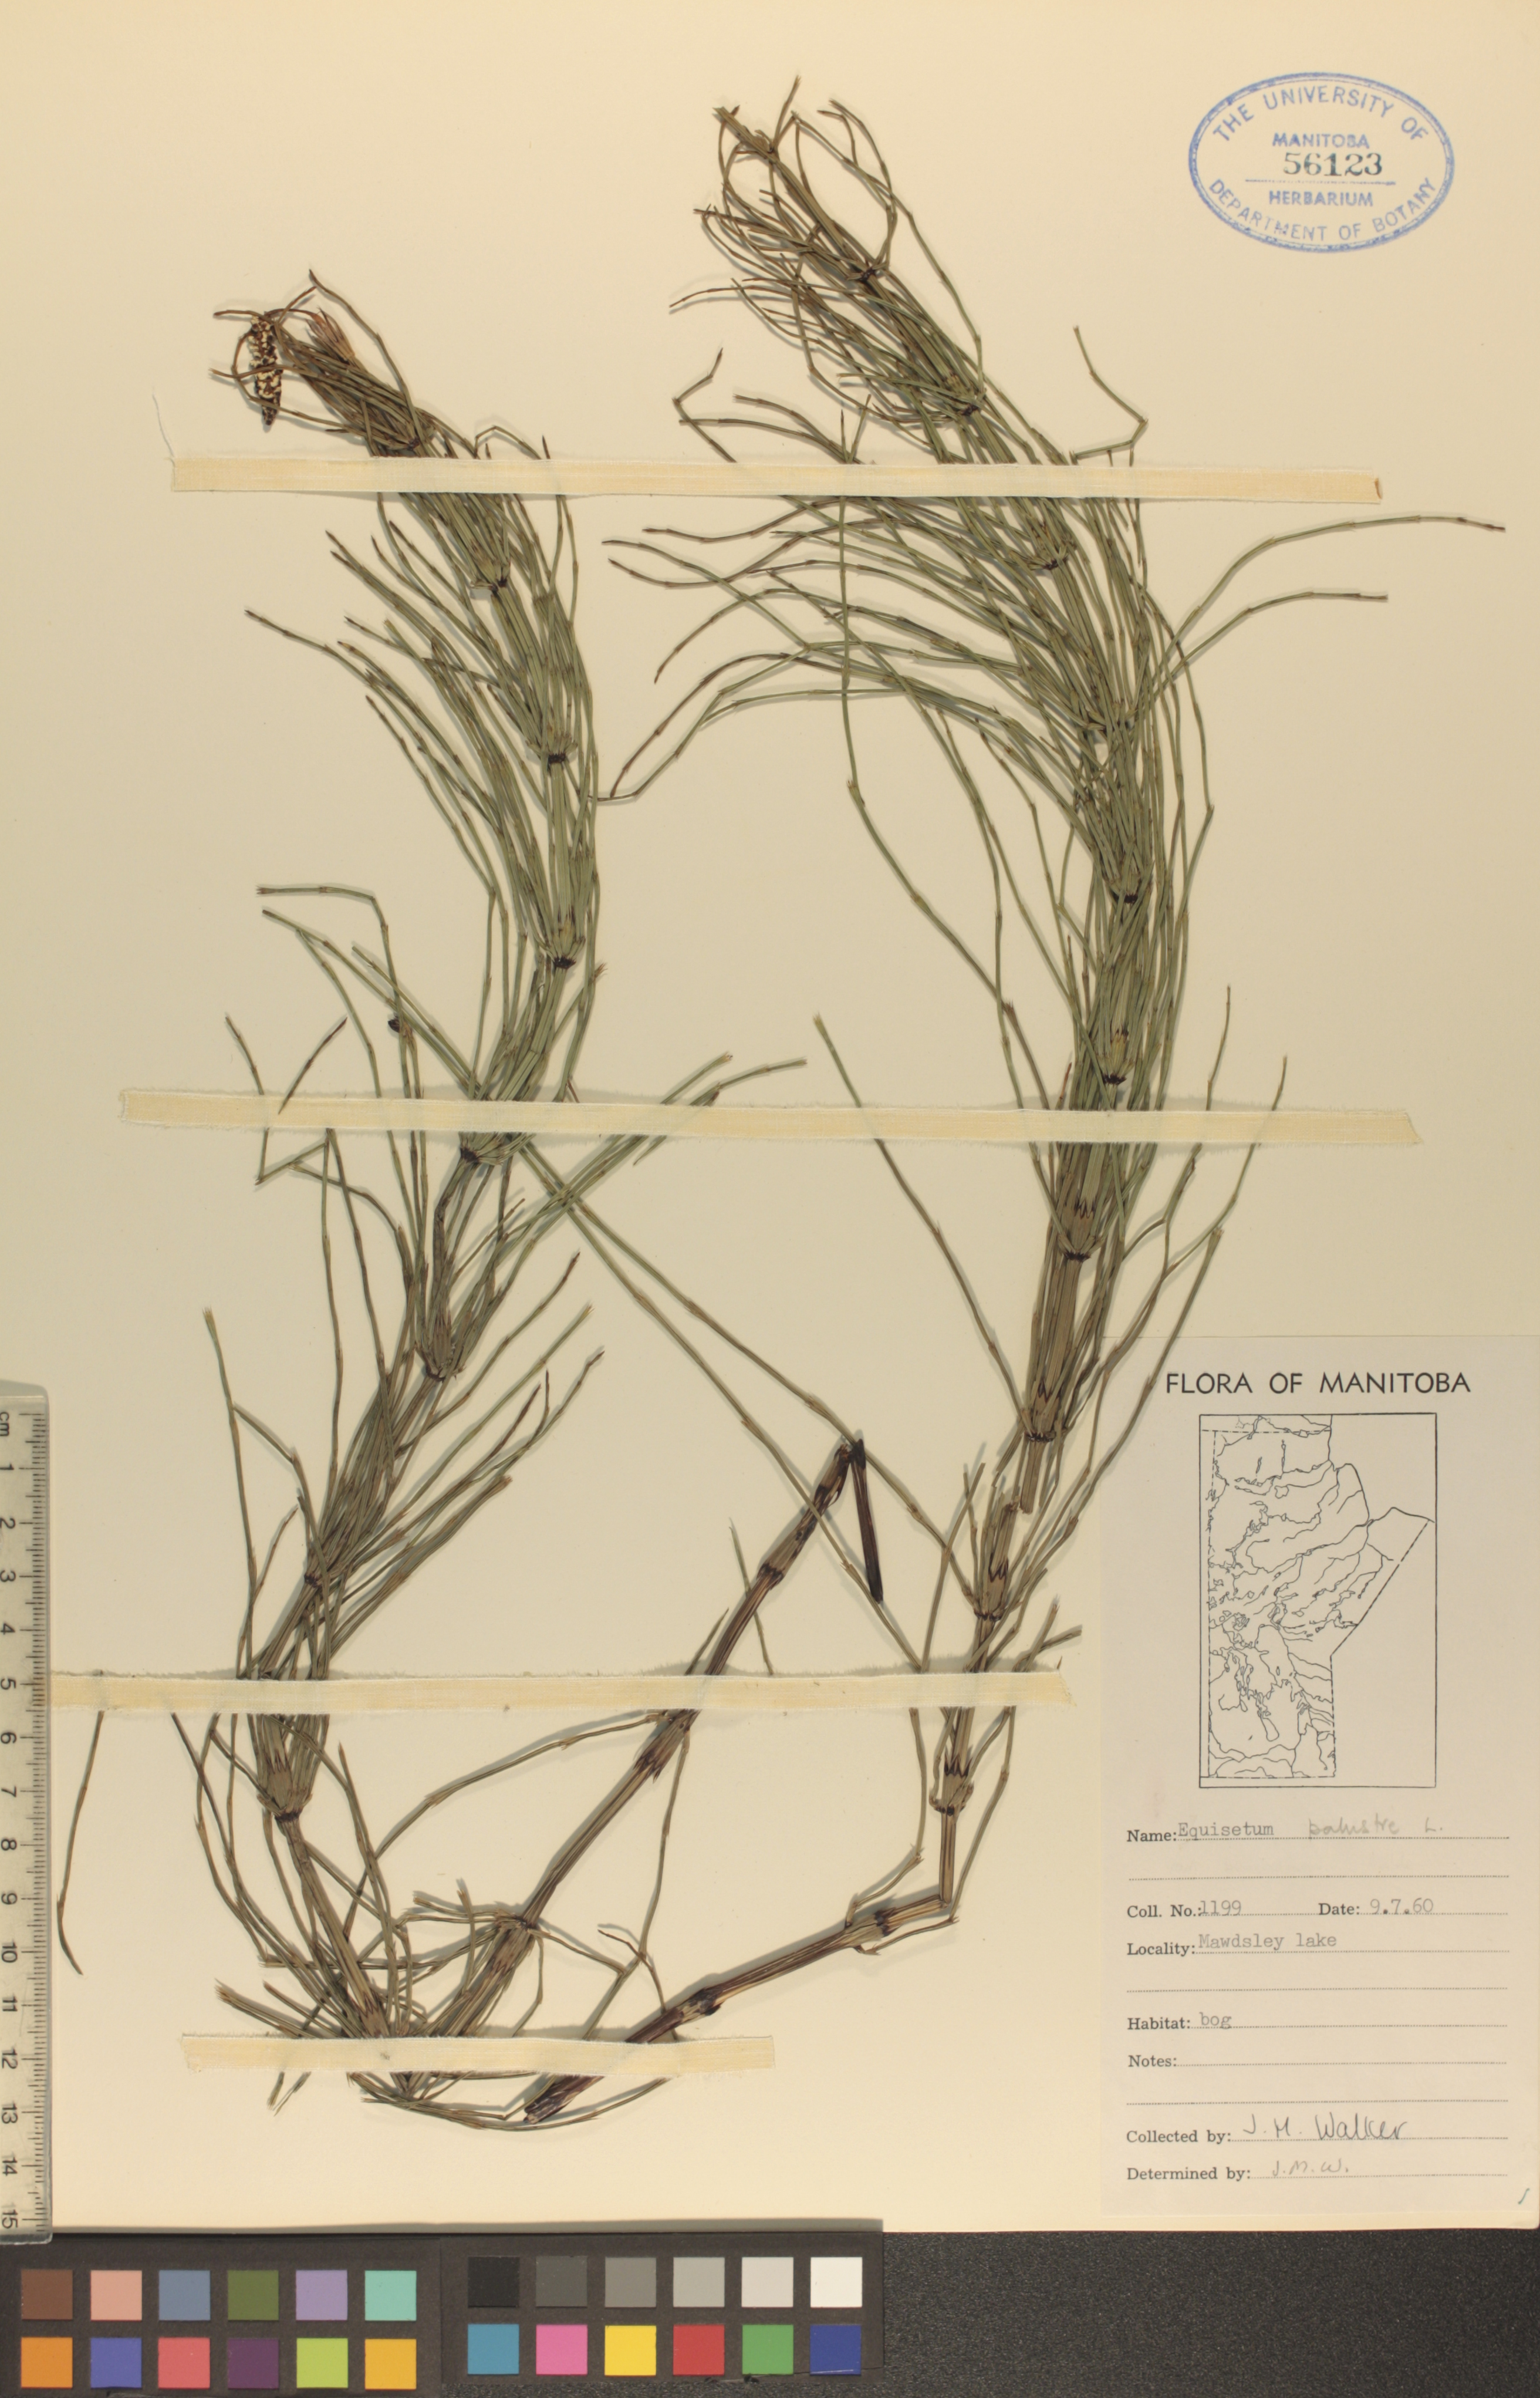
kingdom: Plantae
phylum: Tracheophyta
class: Polypodiopsida
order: Equisetales
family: Equisetaceae
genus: Equisetum
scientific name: Equisetum palustre
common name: Marsh horsetail
